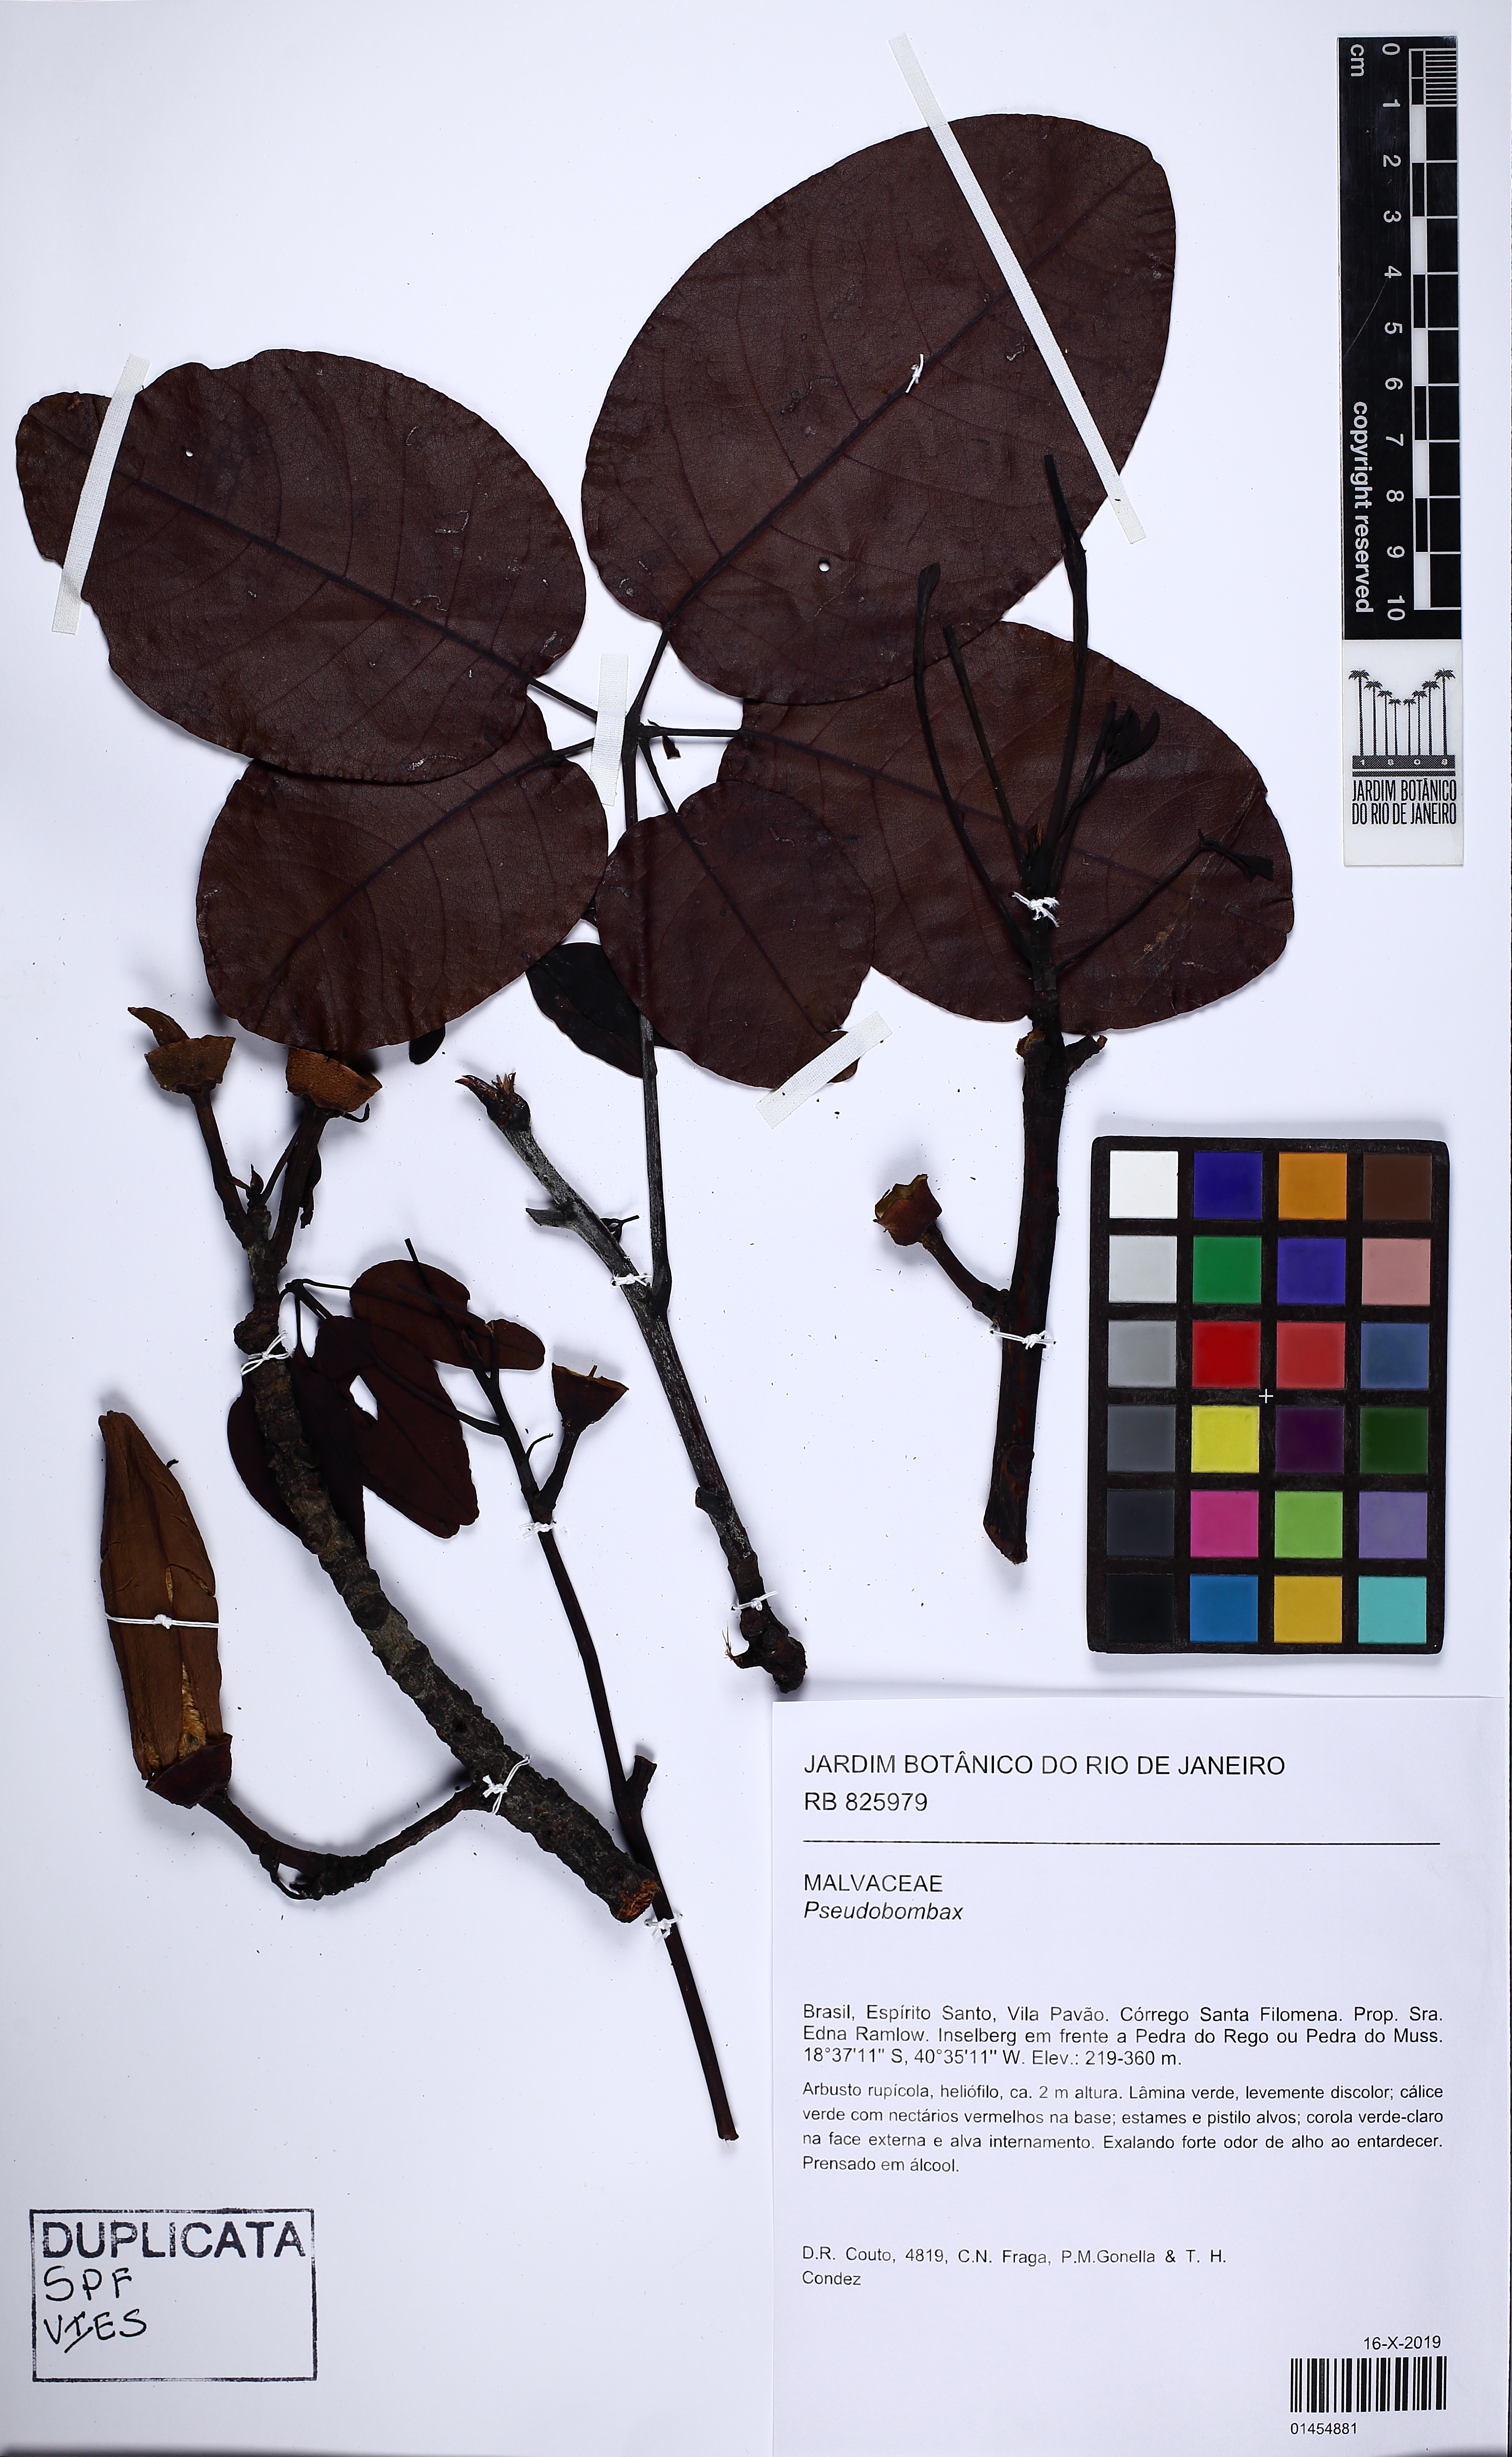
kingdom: Plantae
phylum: Tracheophyta
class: Magnoliopsida
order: Malvales
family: Malvaceae
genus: Pseudobombax
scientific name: Pseudobombax
